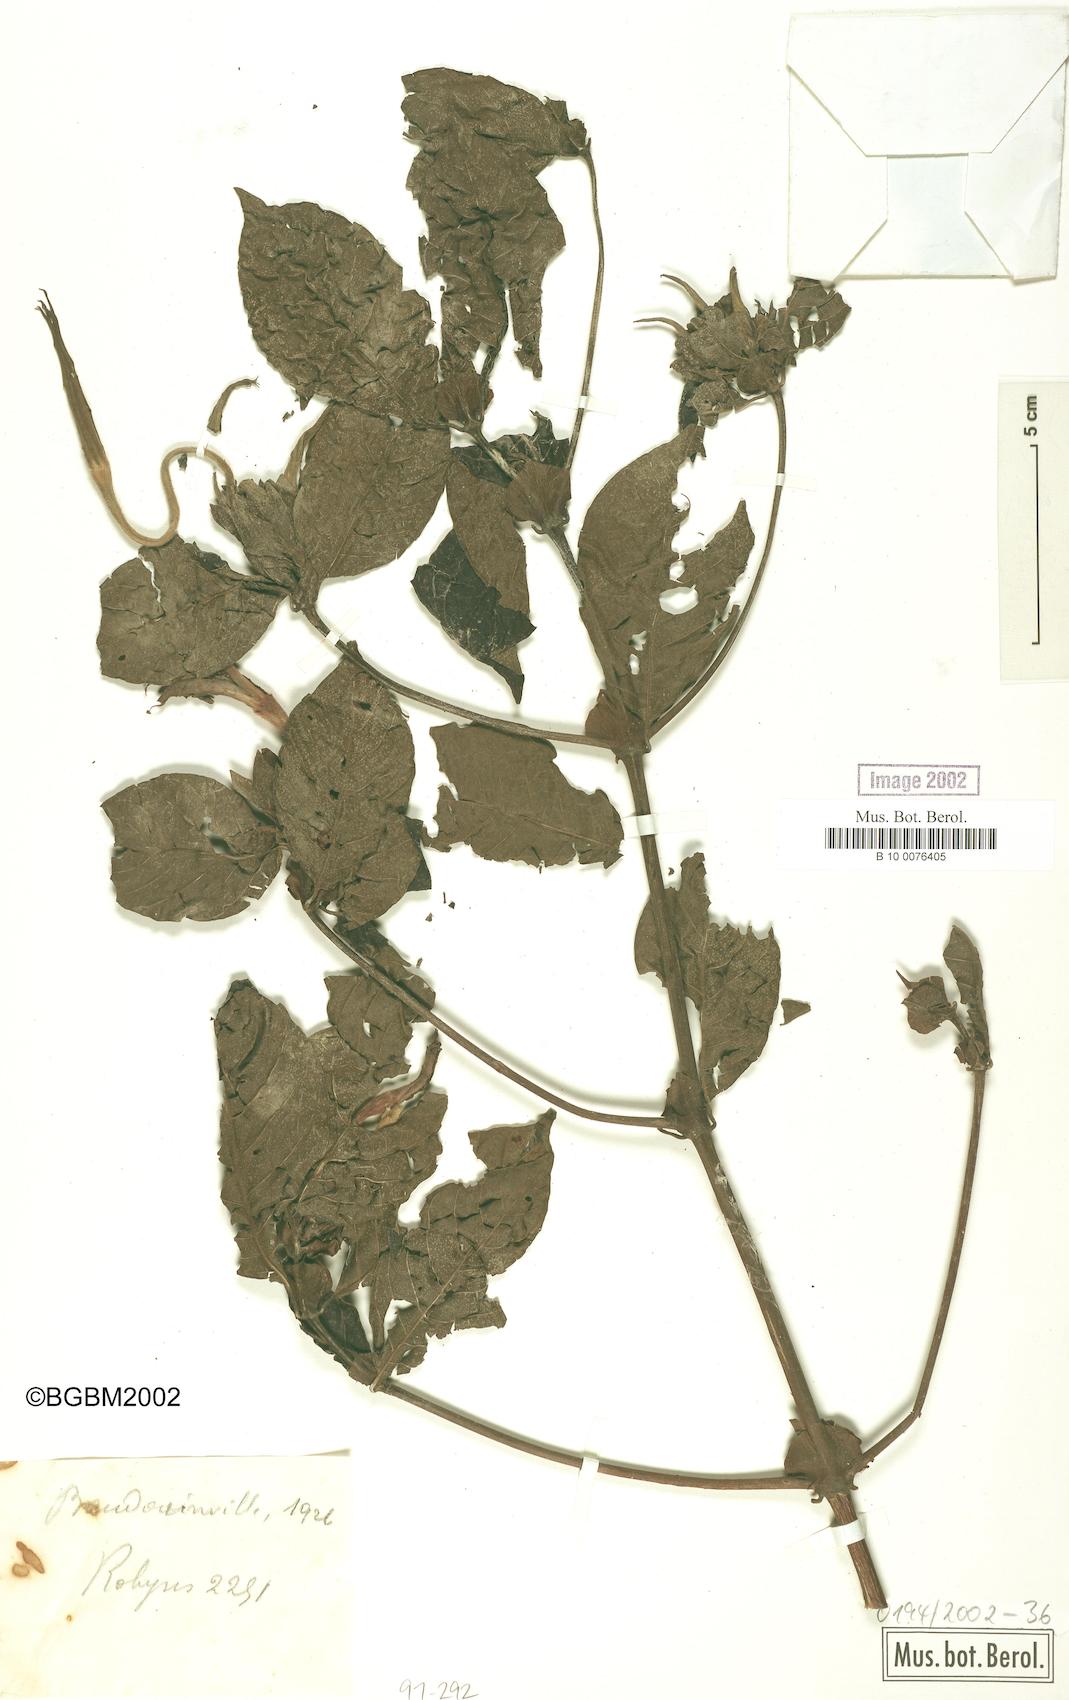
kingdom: Plantae
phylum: Tracheophyta
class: Magnoliopsida
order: Gentianales
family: Rubiaceae
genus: Leptactinia
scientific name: Leptactinia
